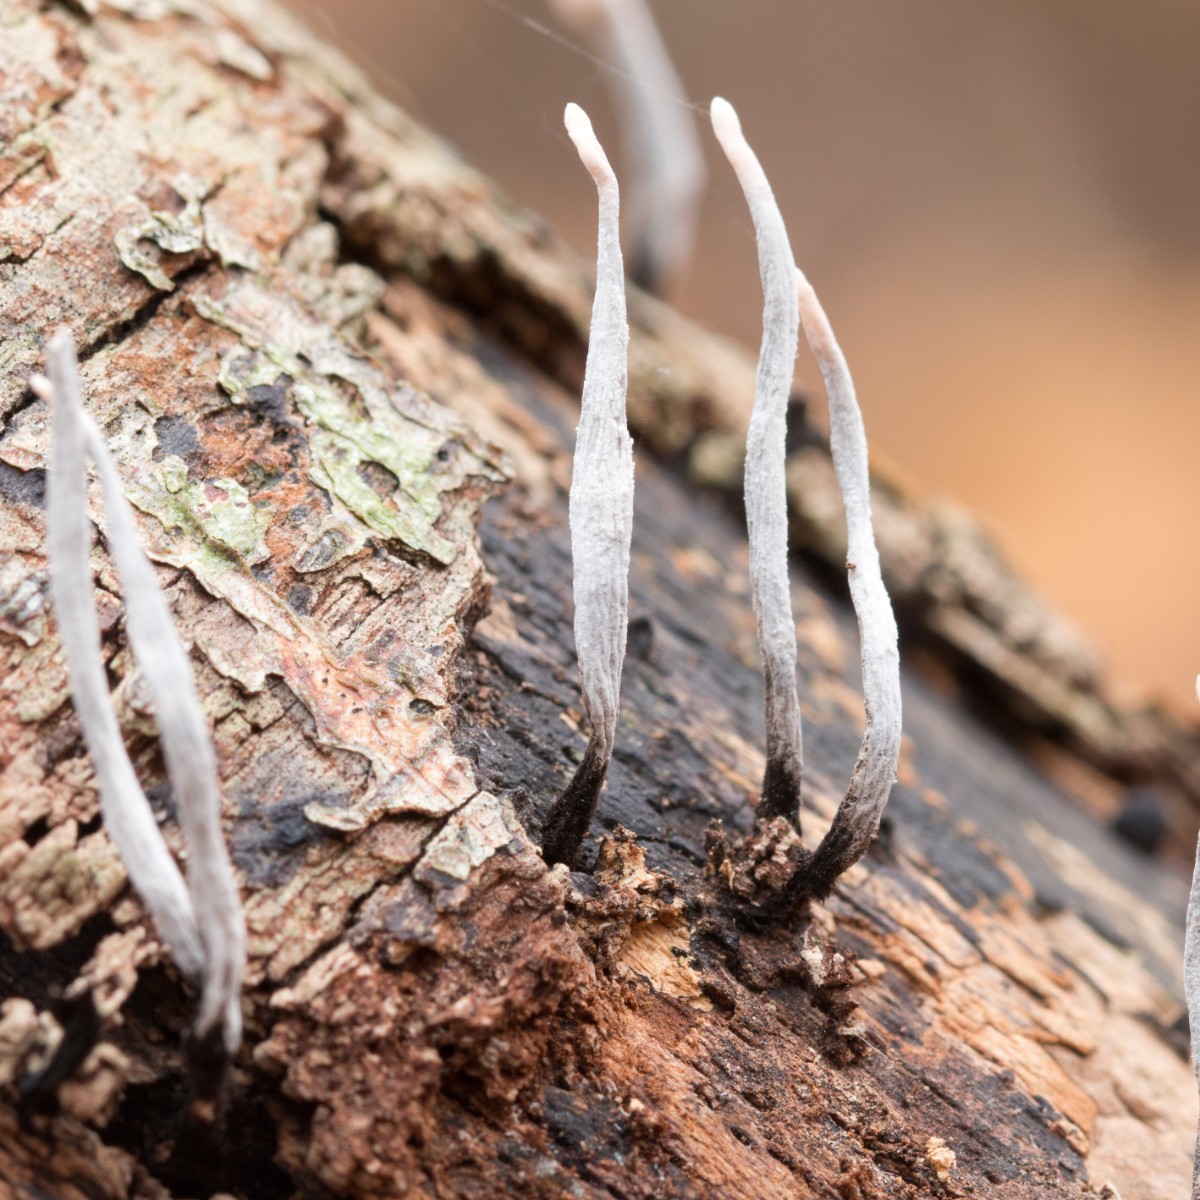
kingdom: Fungi
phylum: Ascomycota
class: Sordariomycetes
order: Xylariales
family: Xylariaceae
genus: Xylaria
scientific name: Xylaria hypoxylon
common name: grenet stødsvamp
